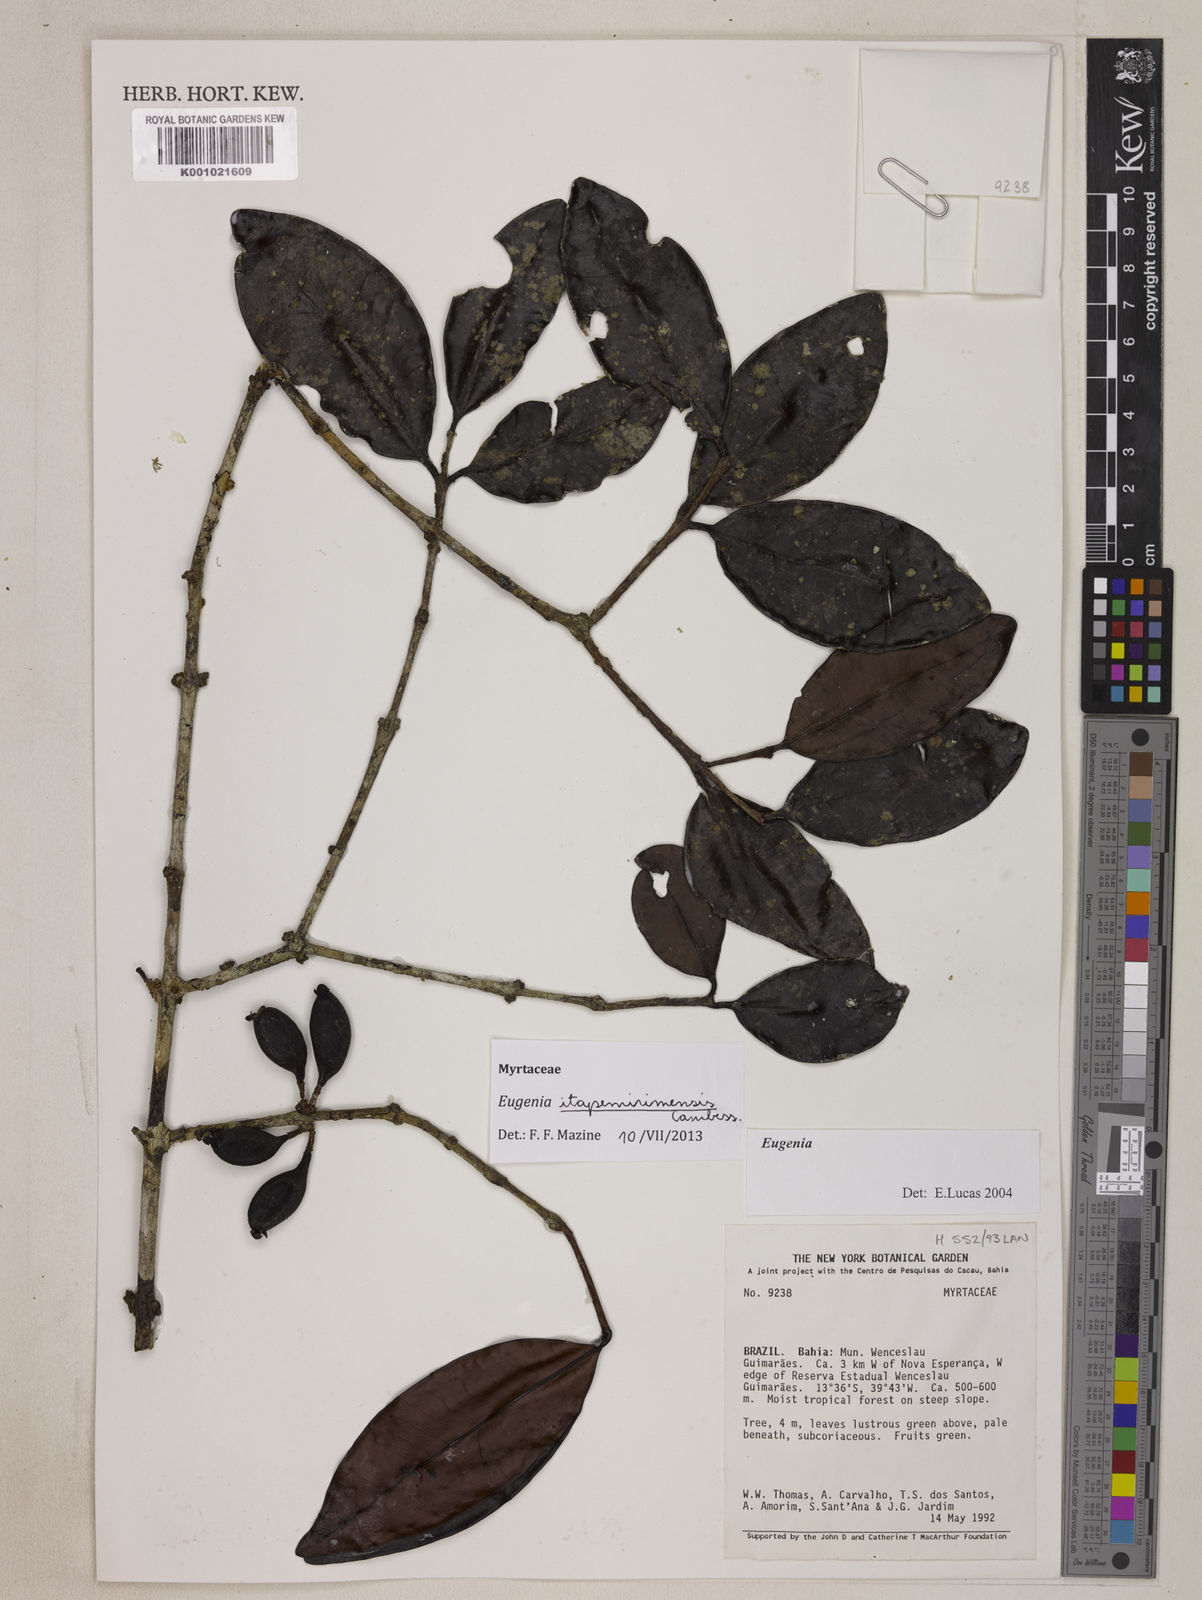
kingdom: Plantae
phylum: Tracheophyta
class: Magnoliopsida
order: Myrtales
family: Myrtaceae
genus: Eugenia
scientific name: Eugenia itapemirimensis
